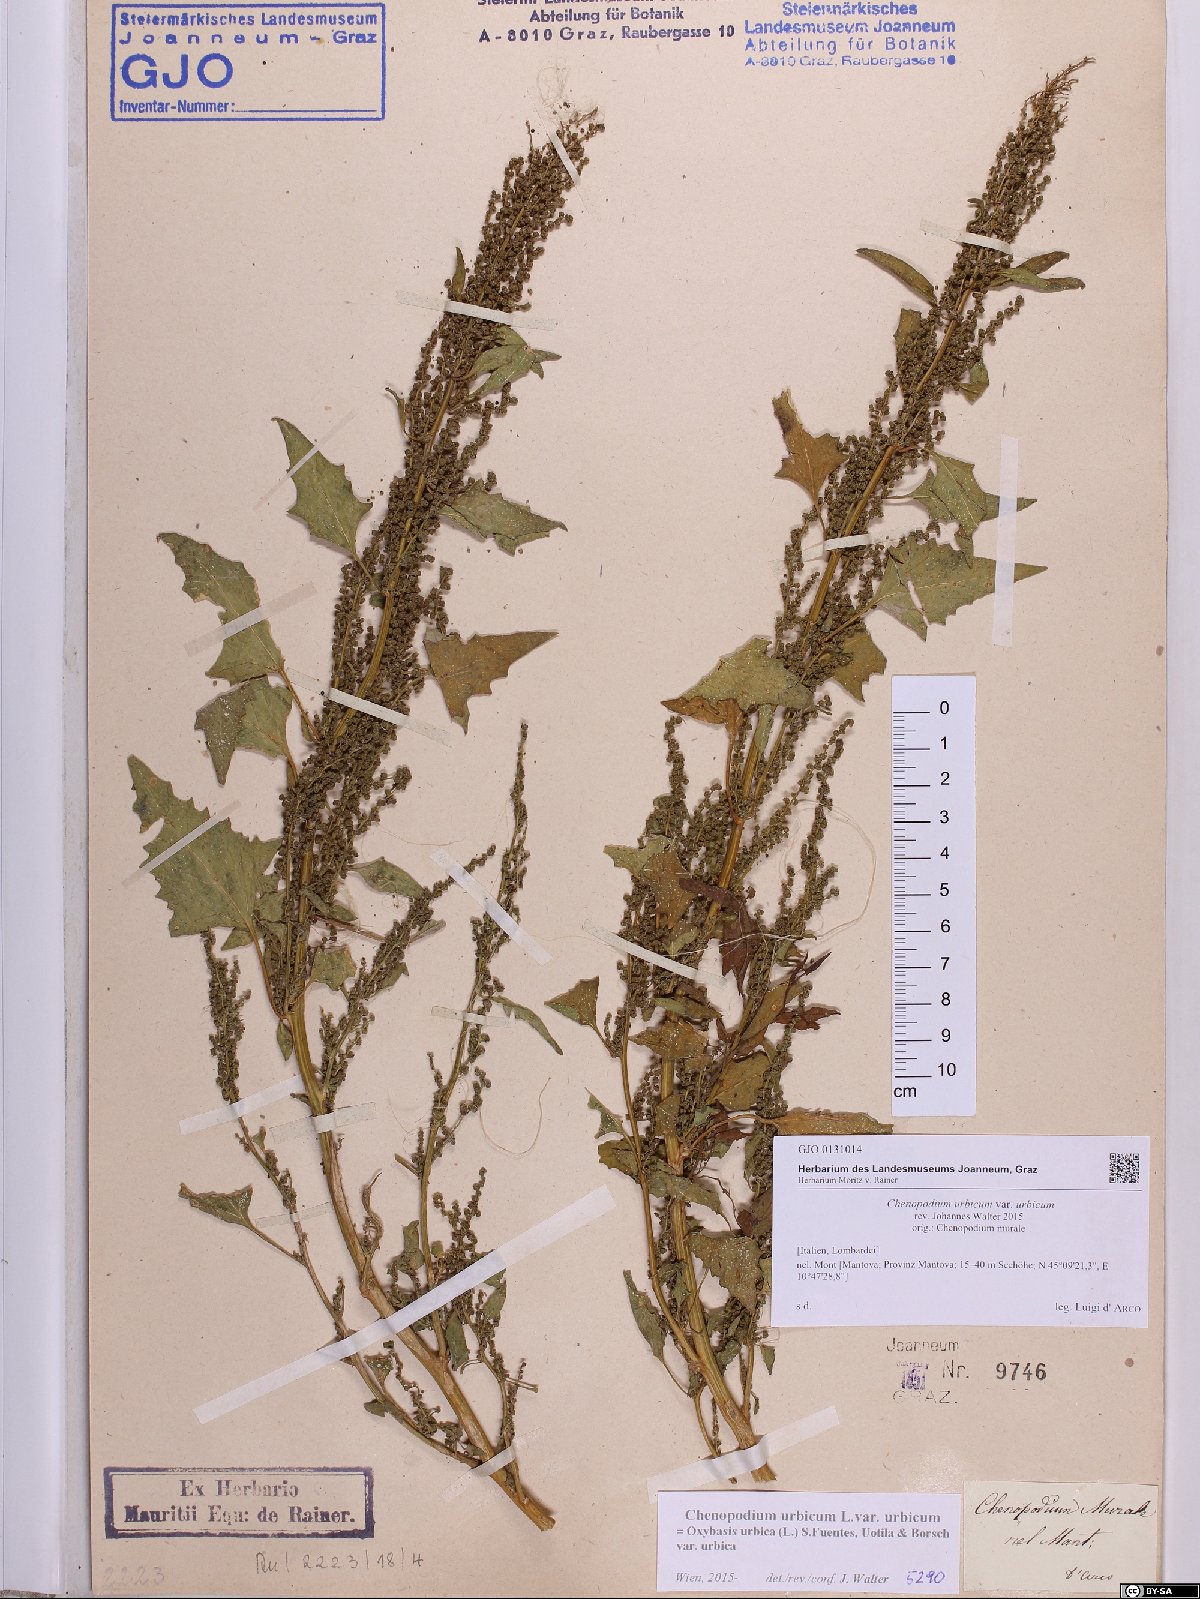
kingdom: Plantae
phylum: Tracheophyta
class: Magnoliopsida
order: Caryophyllales
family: Amaranthaceae
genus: Oxybasis
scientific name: Oxybasis urbica
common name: City goosefoot
